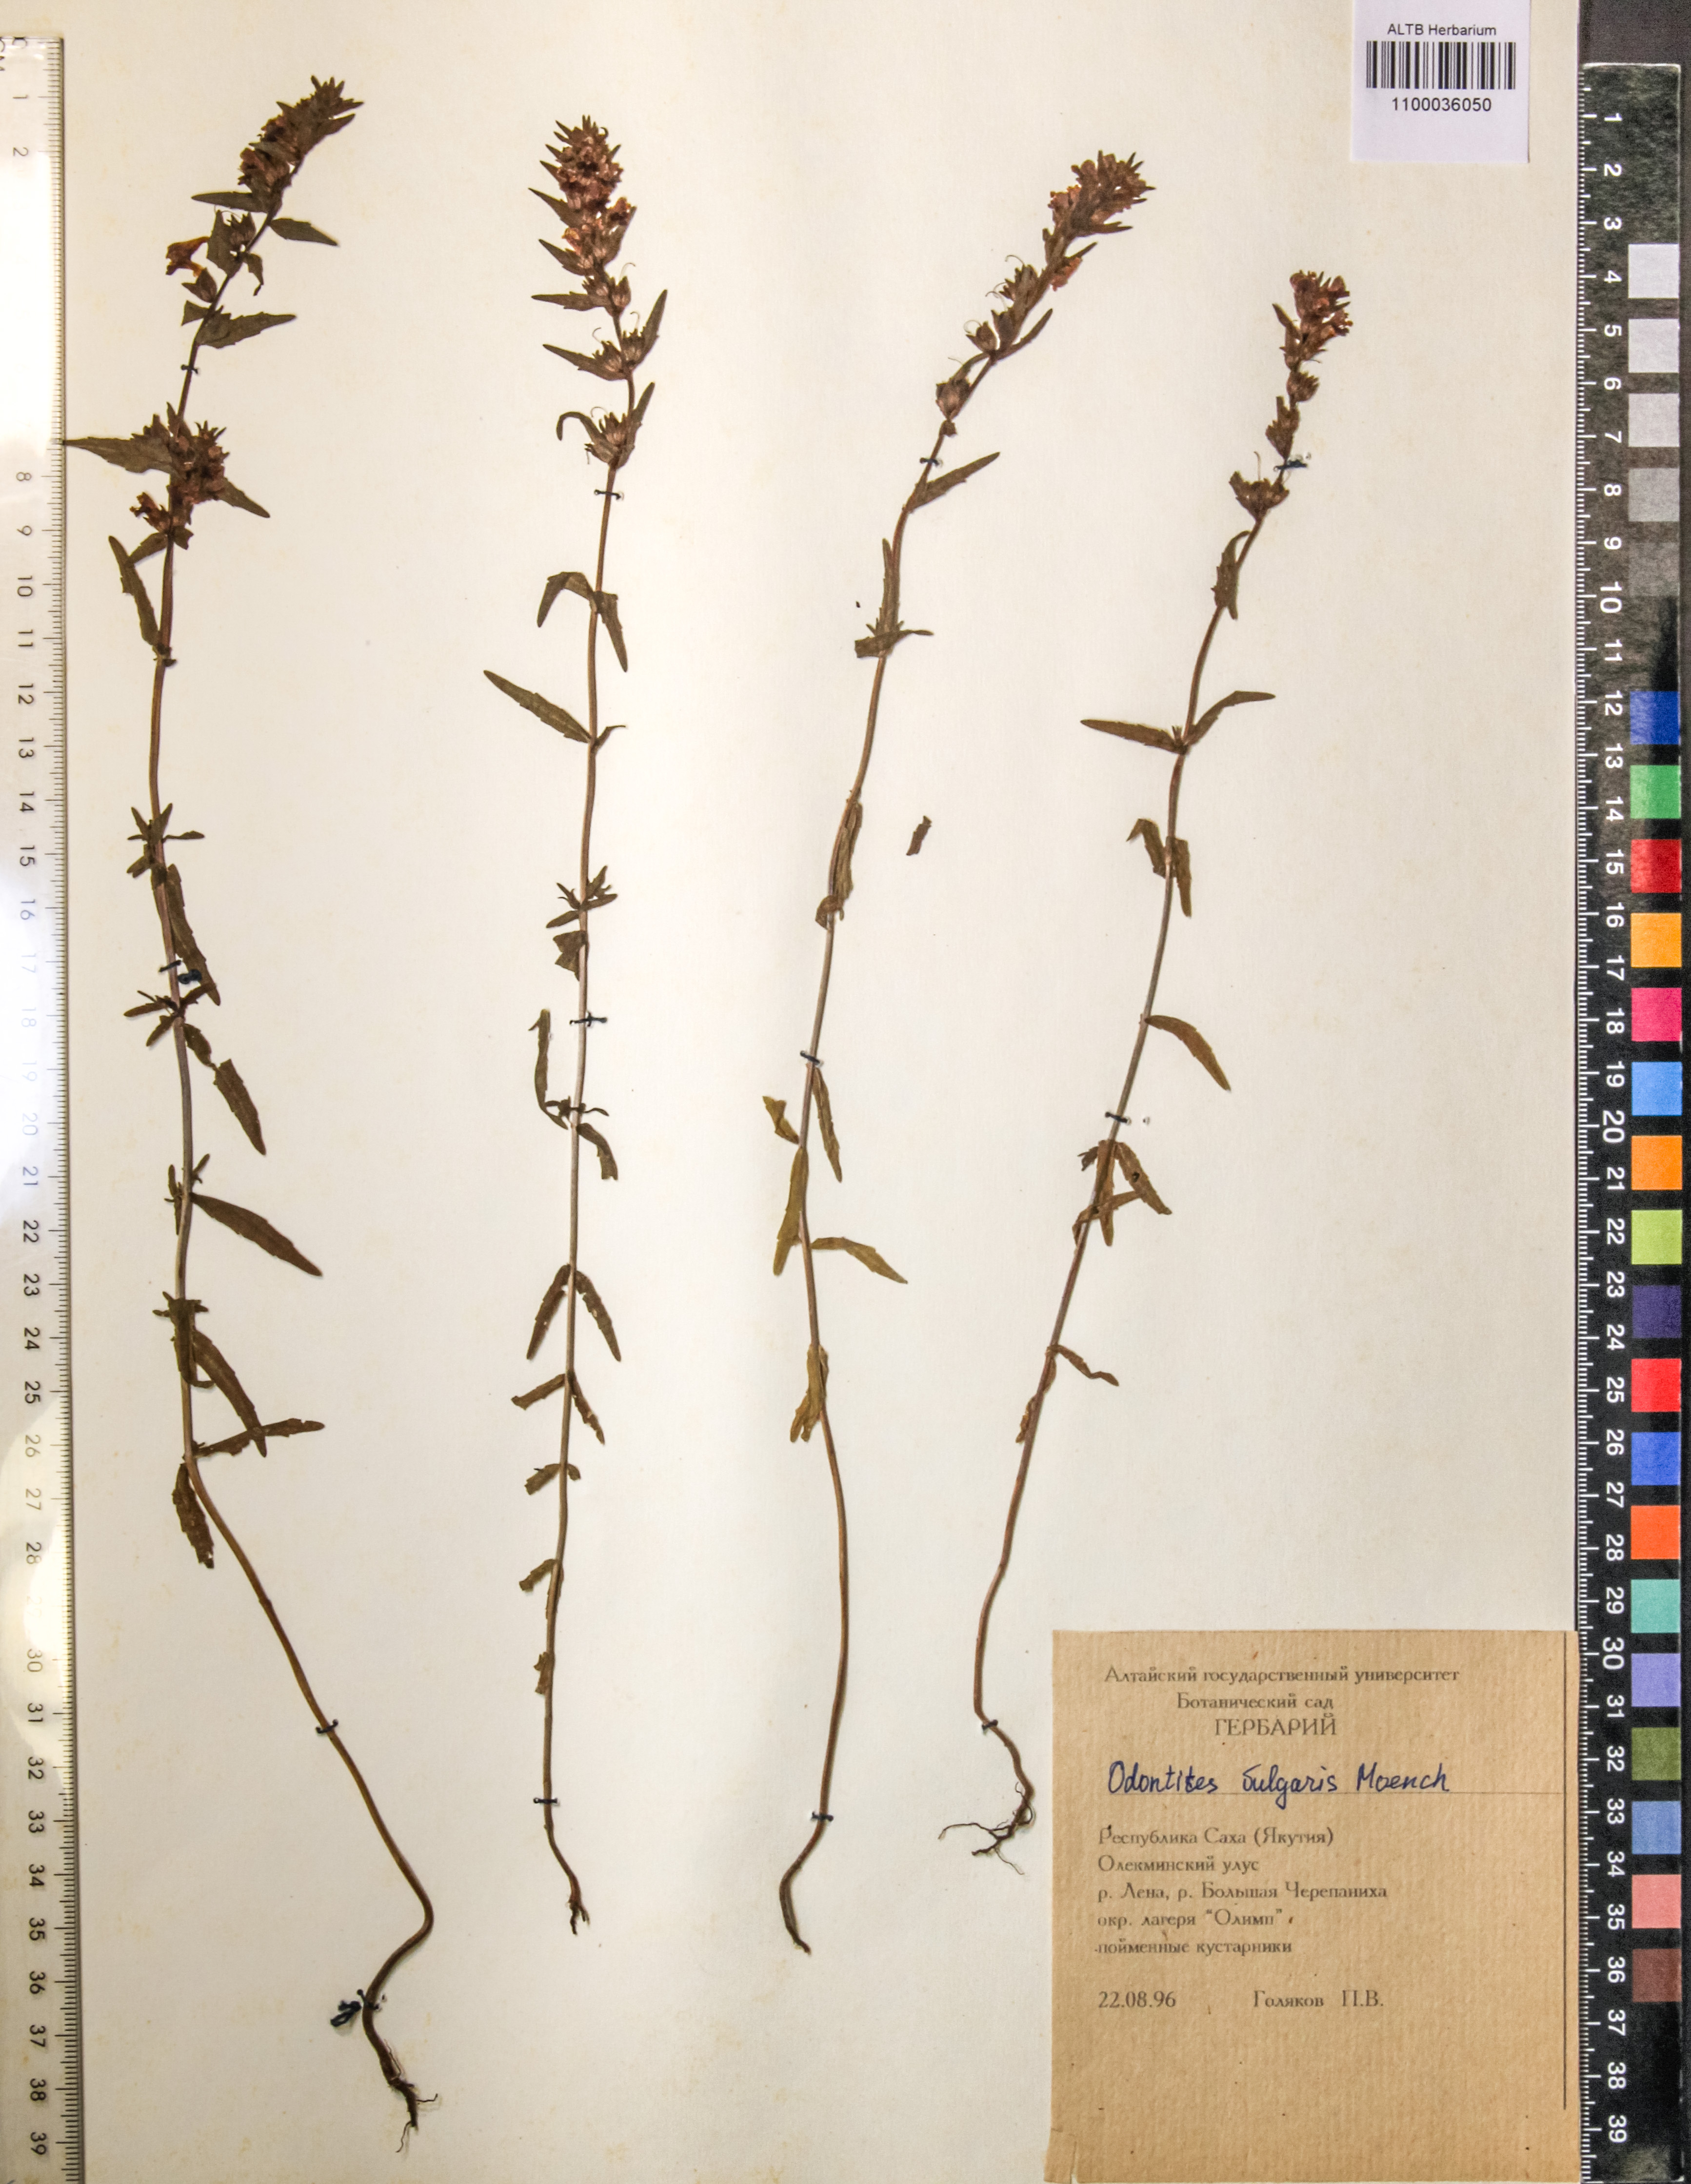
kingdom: Plantae
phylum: Tracheophyta
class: Magnoliopsida
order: Lamiales
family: Orobanchaceae
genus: Odontites
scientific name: Odontites vulgaris
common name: Broomrape
